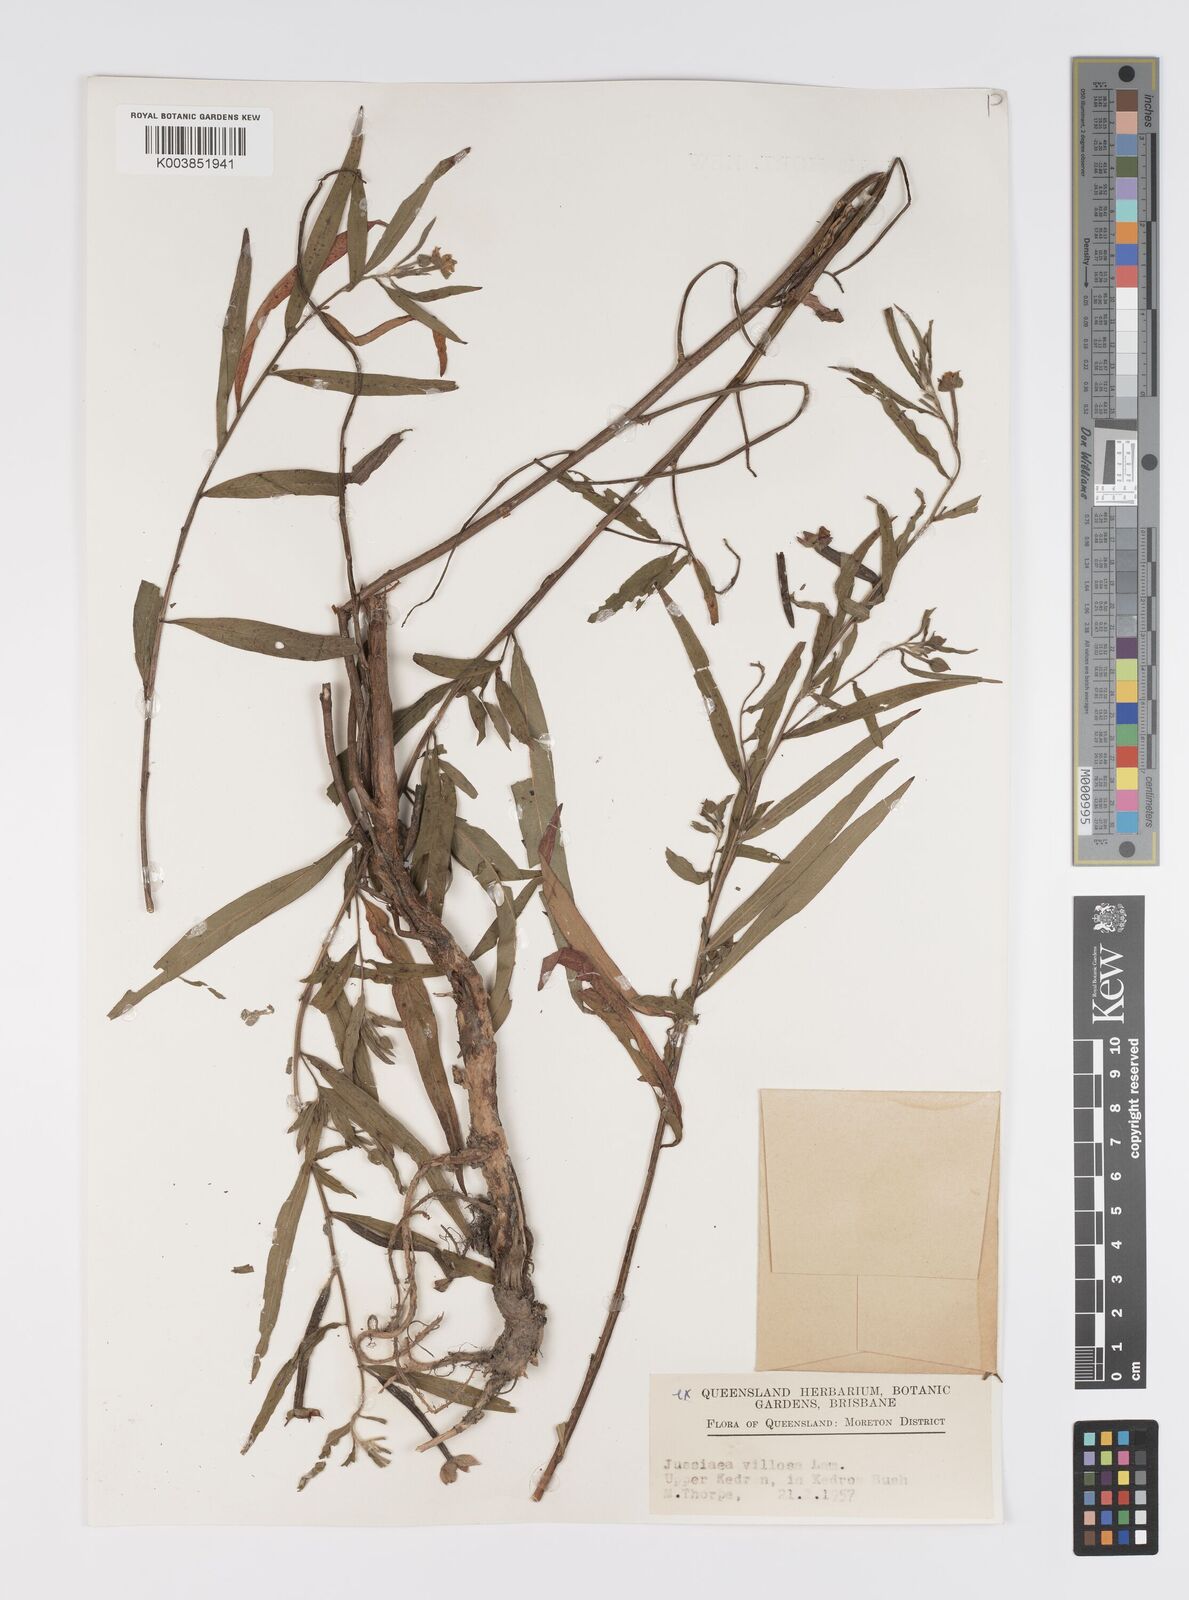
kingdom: Plantae
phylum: Tracheophyta
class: Magnoliopsida
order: Myrtales
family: Onagraceae
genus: Ludwigia
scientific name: Ludwigia octovalvis
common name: Water-primrose
